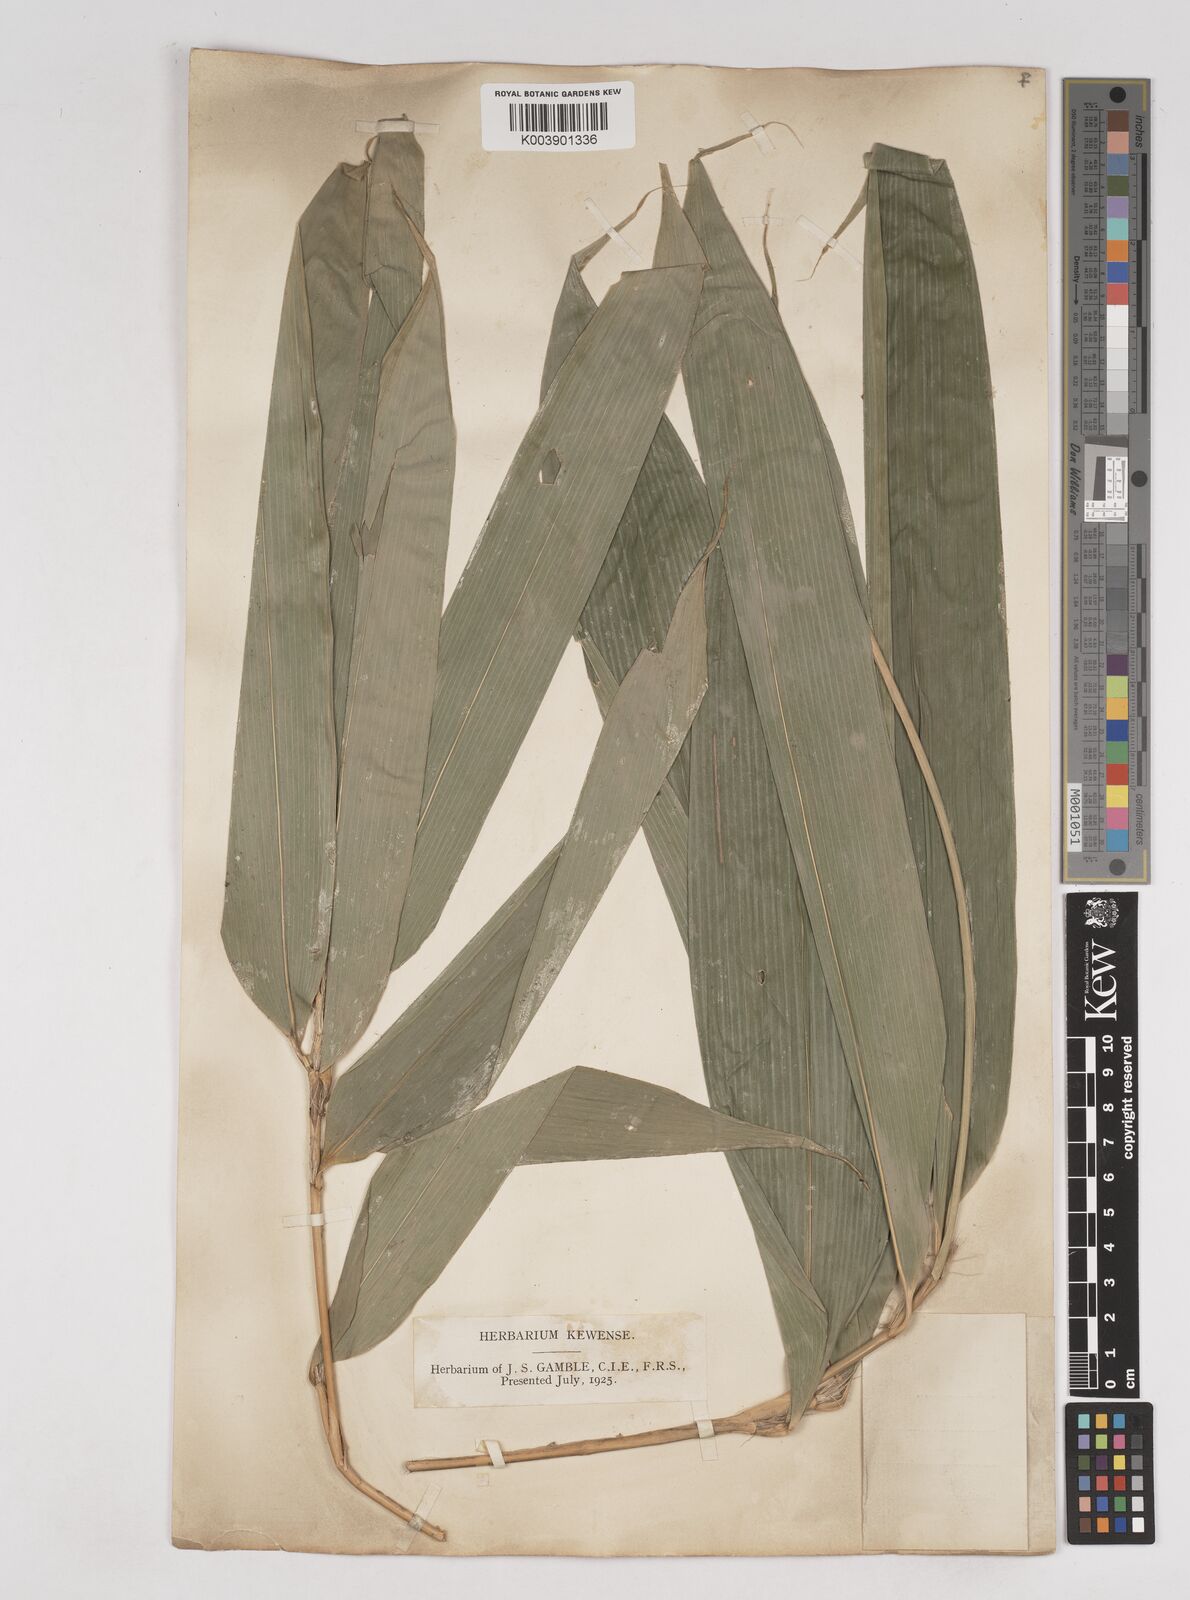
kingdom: Plantae
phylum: Tracheophyta
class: Liliopsida
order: Poales
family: Poaceae
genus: Melocanna
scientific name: Melocanna
